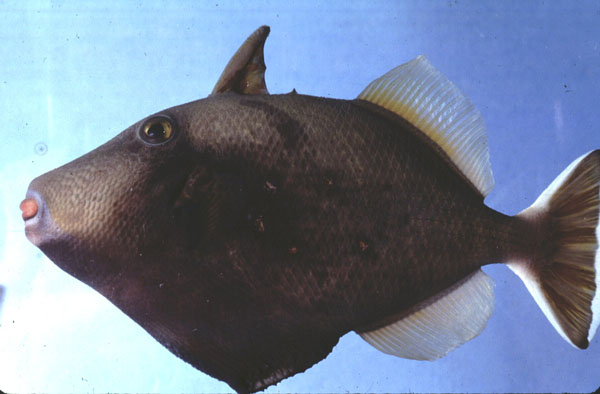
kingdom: Animalia
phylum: Chordata
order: Tetraodontiformes
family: Balistidae
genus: Sufflamen
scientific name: Sufflamen chrysopterum
